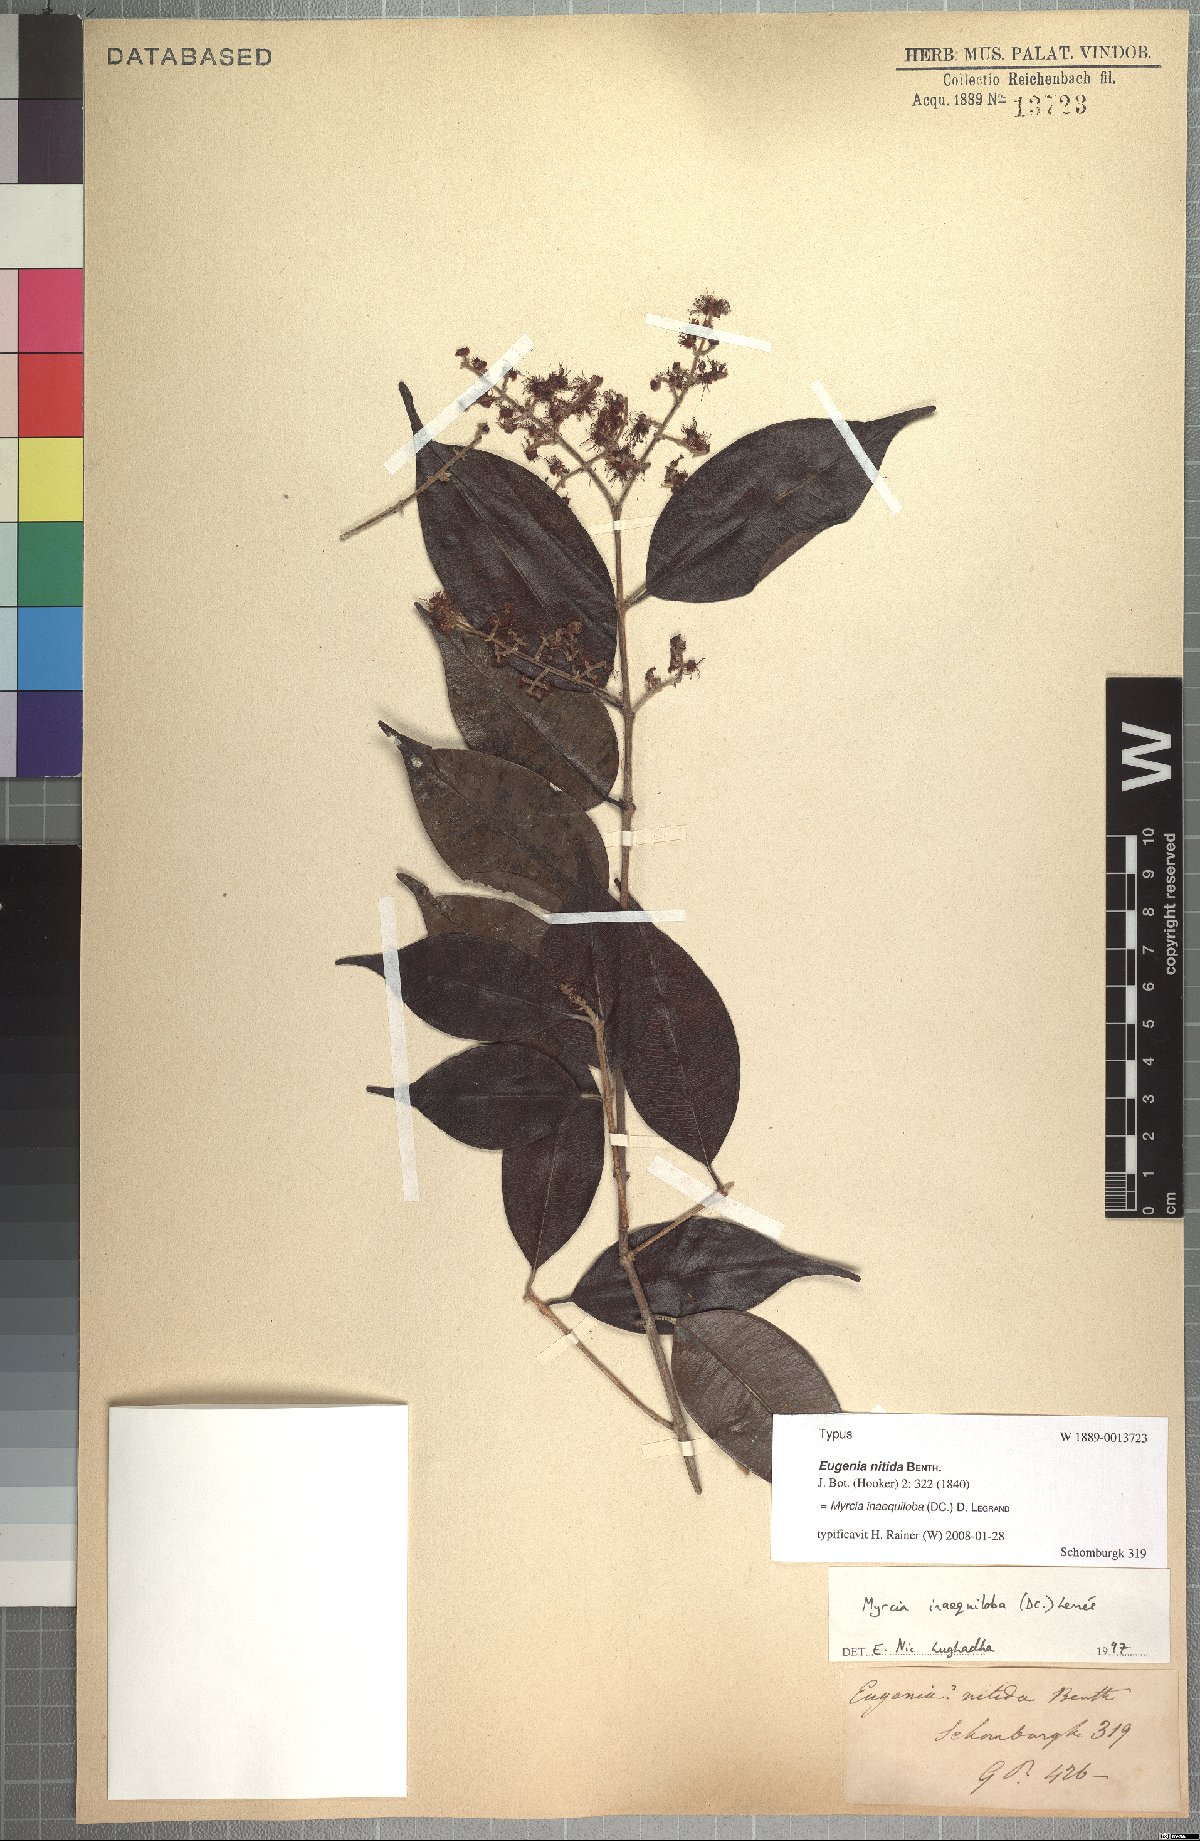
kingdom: Plantae
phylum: Tracheophyta
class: Magnoliopsida
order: Myrtales
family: Myrtaceae
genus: Myrcia
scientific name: Myrcia inaequiloba
